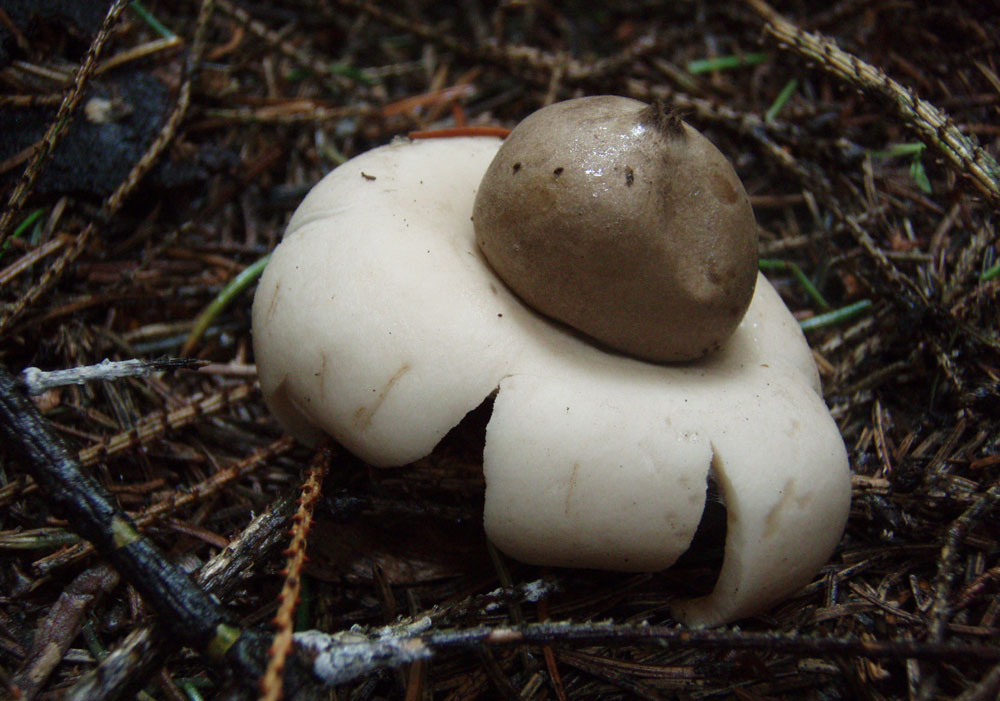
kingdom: Fungi
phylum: Basidiomycota
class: Agaricomycetes
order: Geastrales
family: Geastraceae
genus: Geastrum
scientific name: Geastrum fimbriatum
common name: frynset stjernebold
